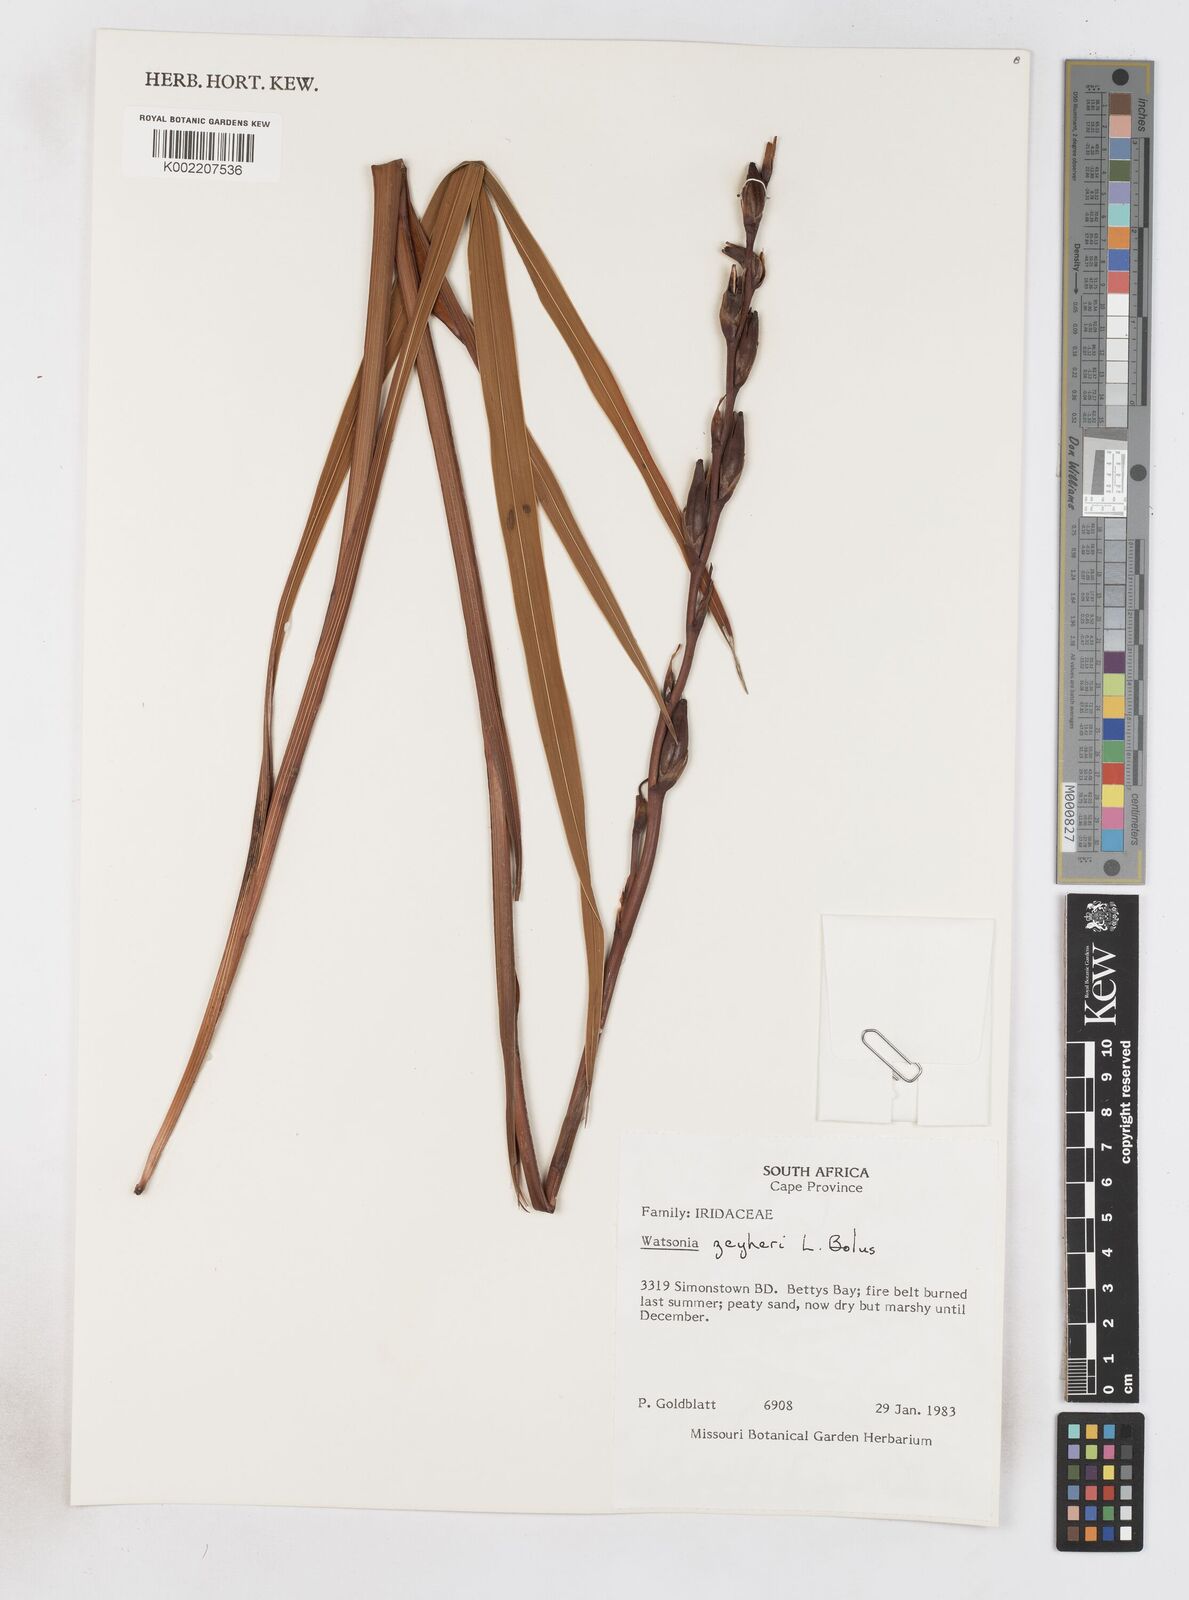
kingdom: Plantae
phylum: Tracheophyta
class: Liliopsida
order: Asparagales
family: Iridaceae
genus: Watsonia
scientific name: Watsonia zeyheri
